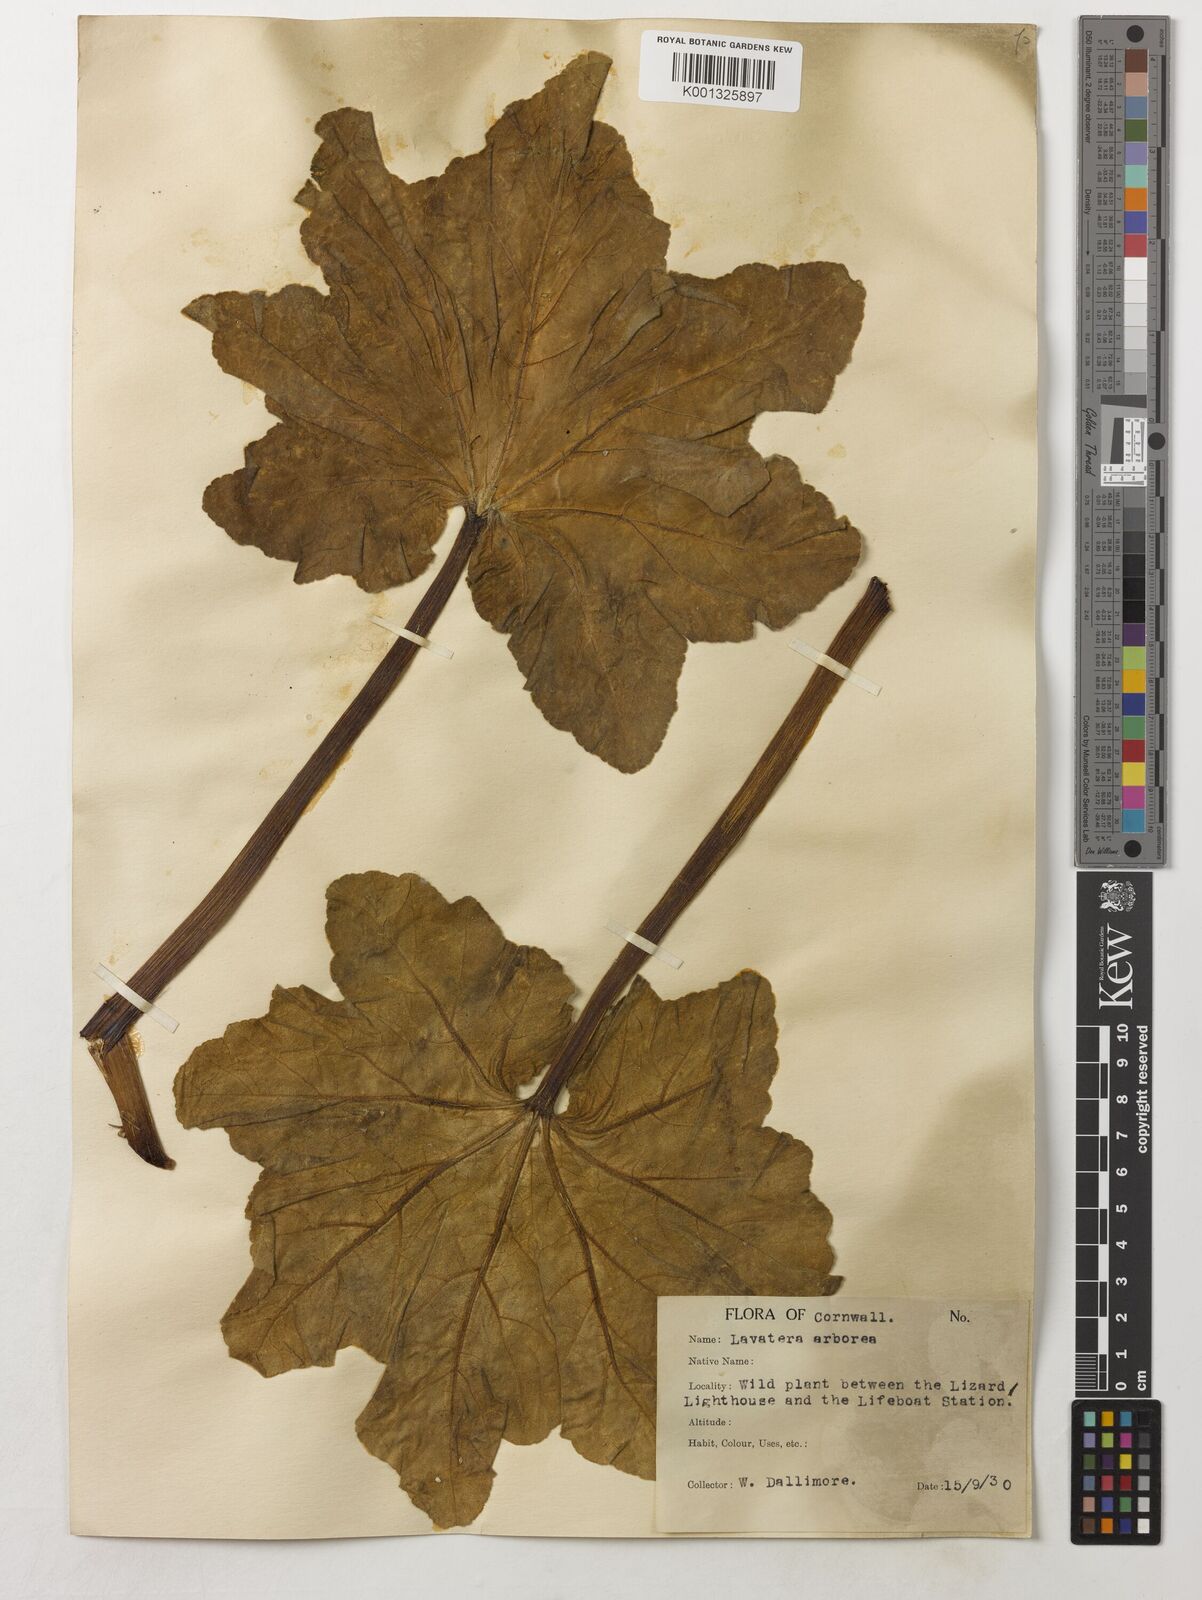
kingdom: Plantae
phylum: Tracheophyta
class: Magnoliopsida
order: Malvales
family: Malvaceae
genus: Malva
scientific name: Malva arborea
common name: Tree mallow
